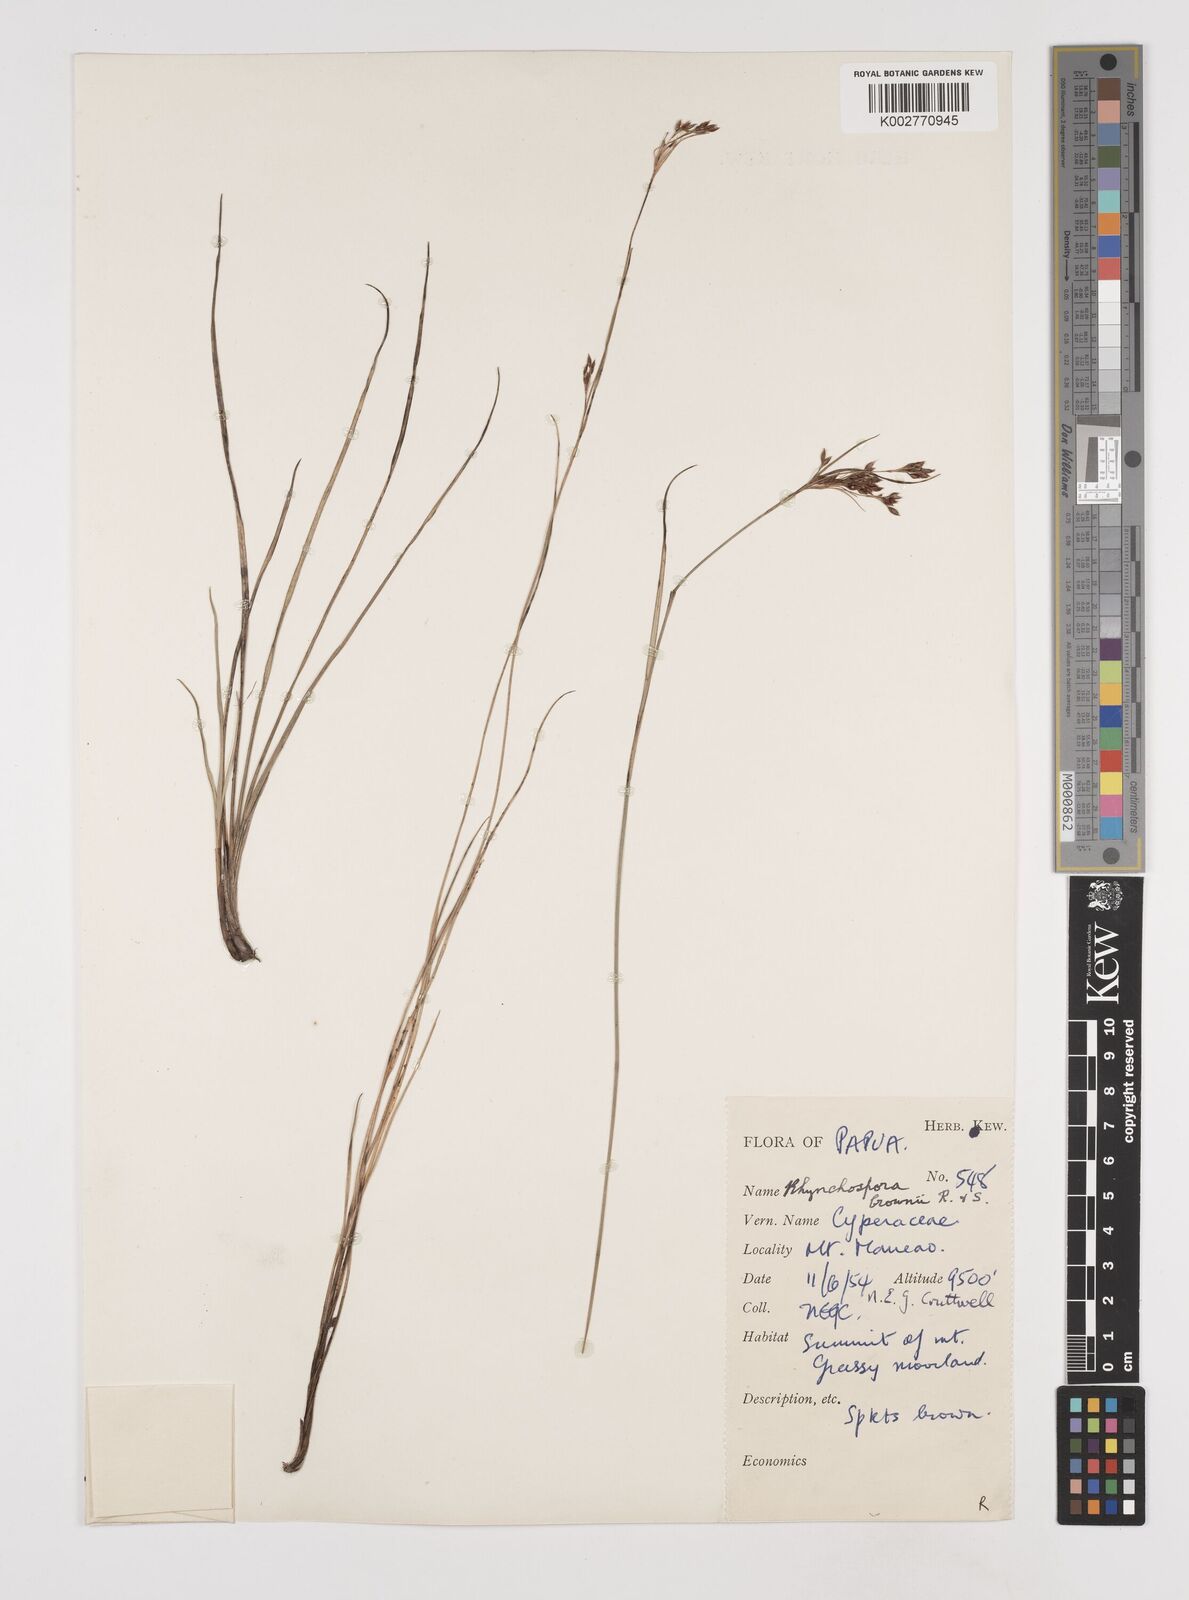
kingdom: Plantae
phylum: Tracheophyta
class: Liliopsida
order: Poales
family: Cyperaceae
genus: Rhynchospora
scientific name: Rhynchospora rugosa
